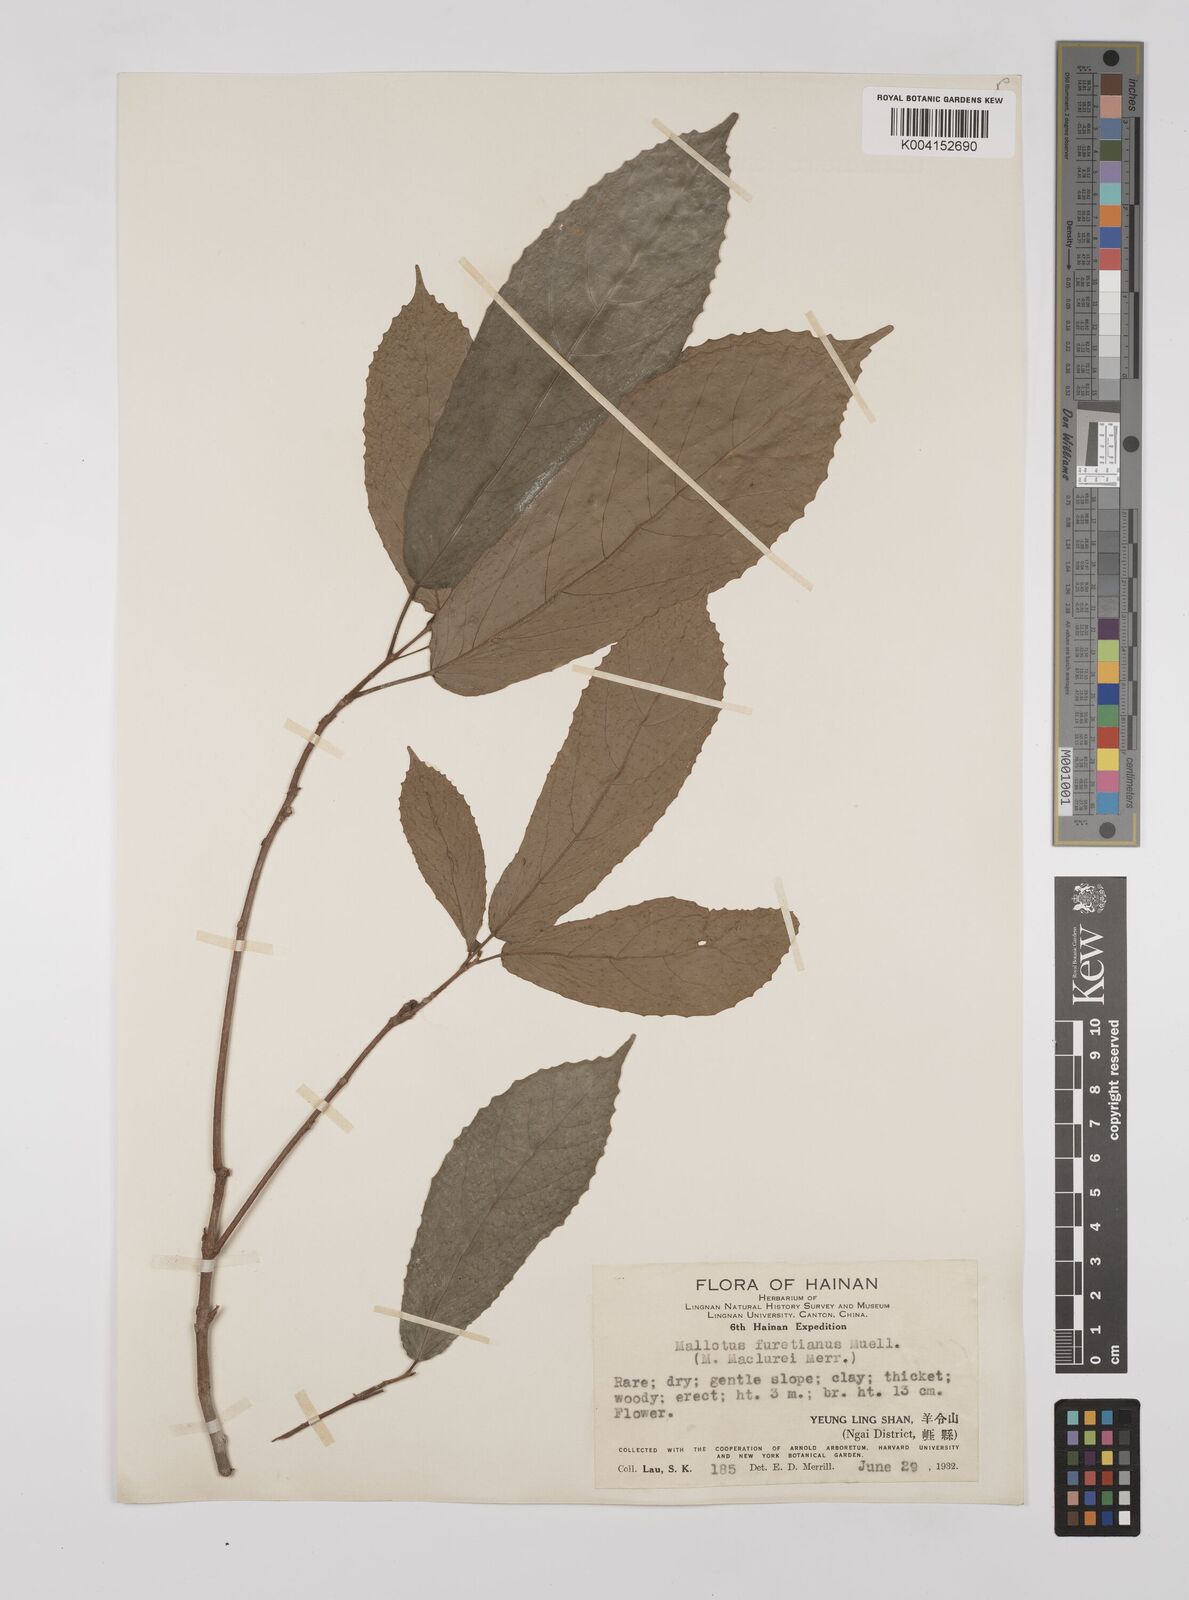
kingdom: Plantae
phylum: Tracheophyta
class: Magnoliopsida
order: Malpighiales
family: Euphorbiaceae
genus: Mallotus
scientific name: Mallotus peltatus
